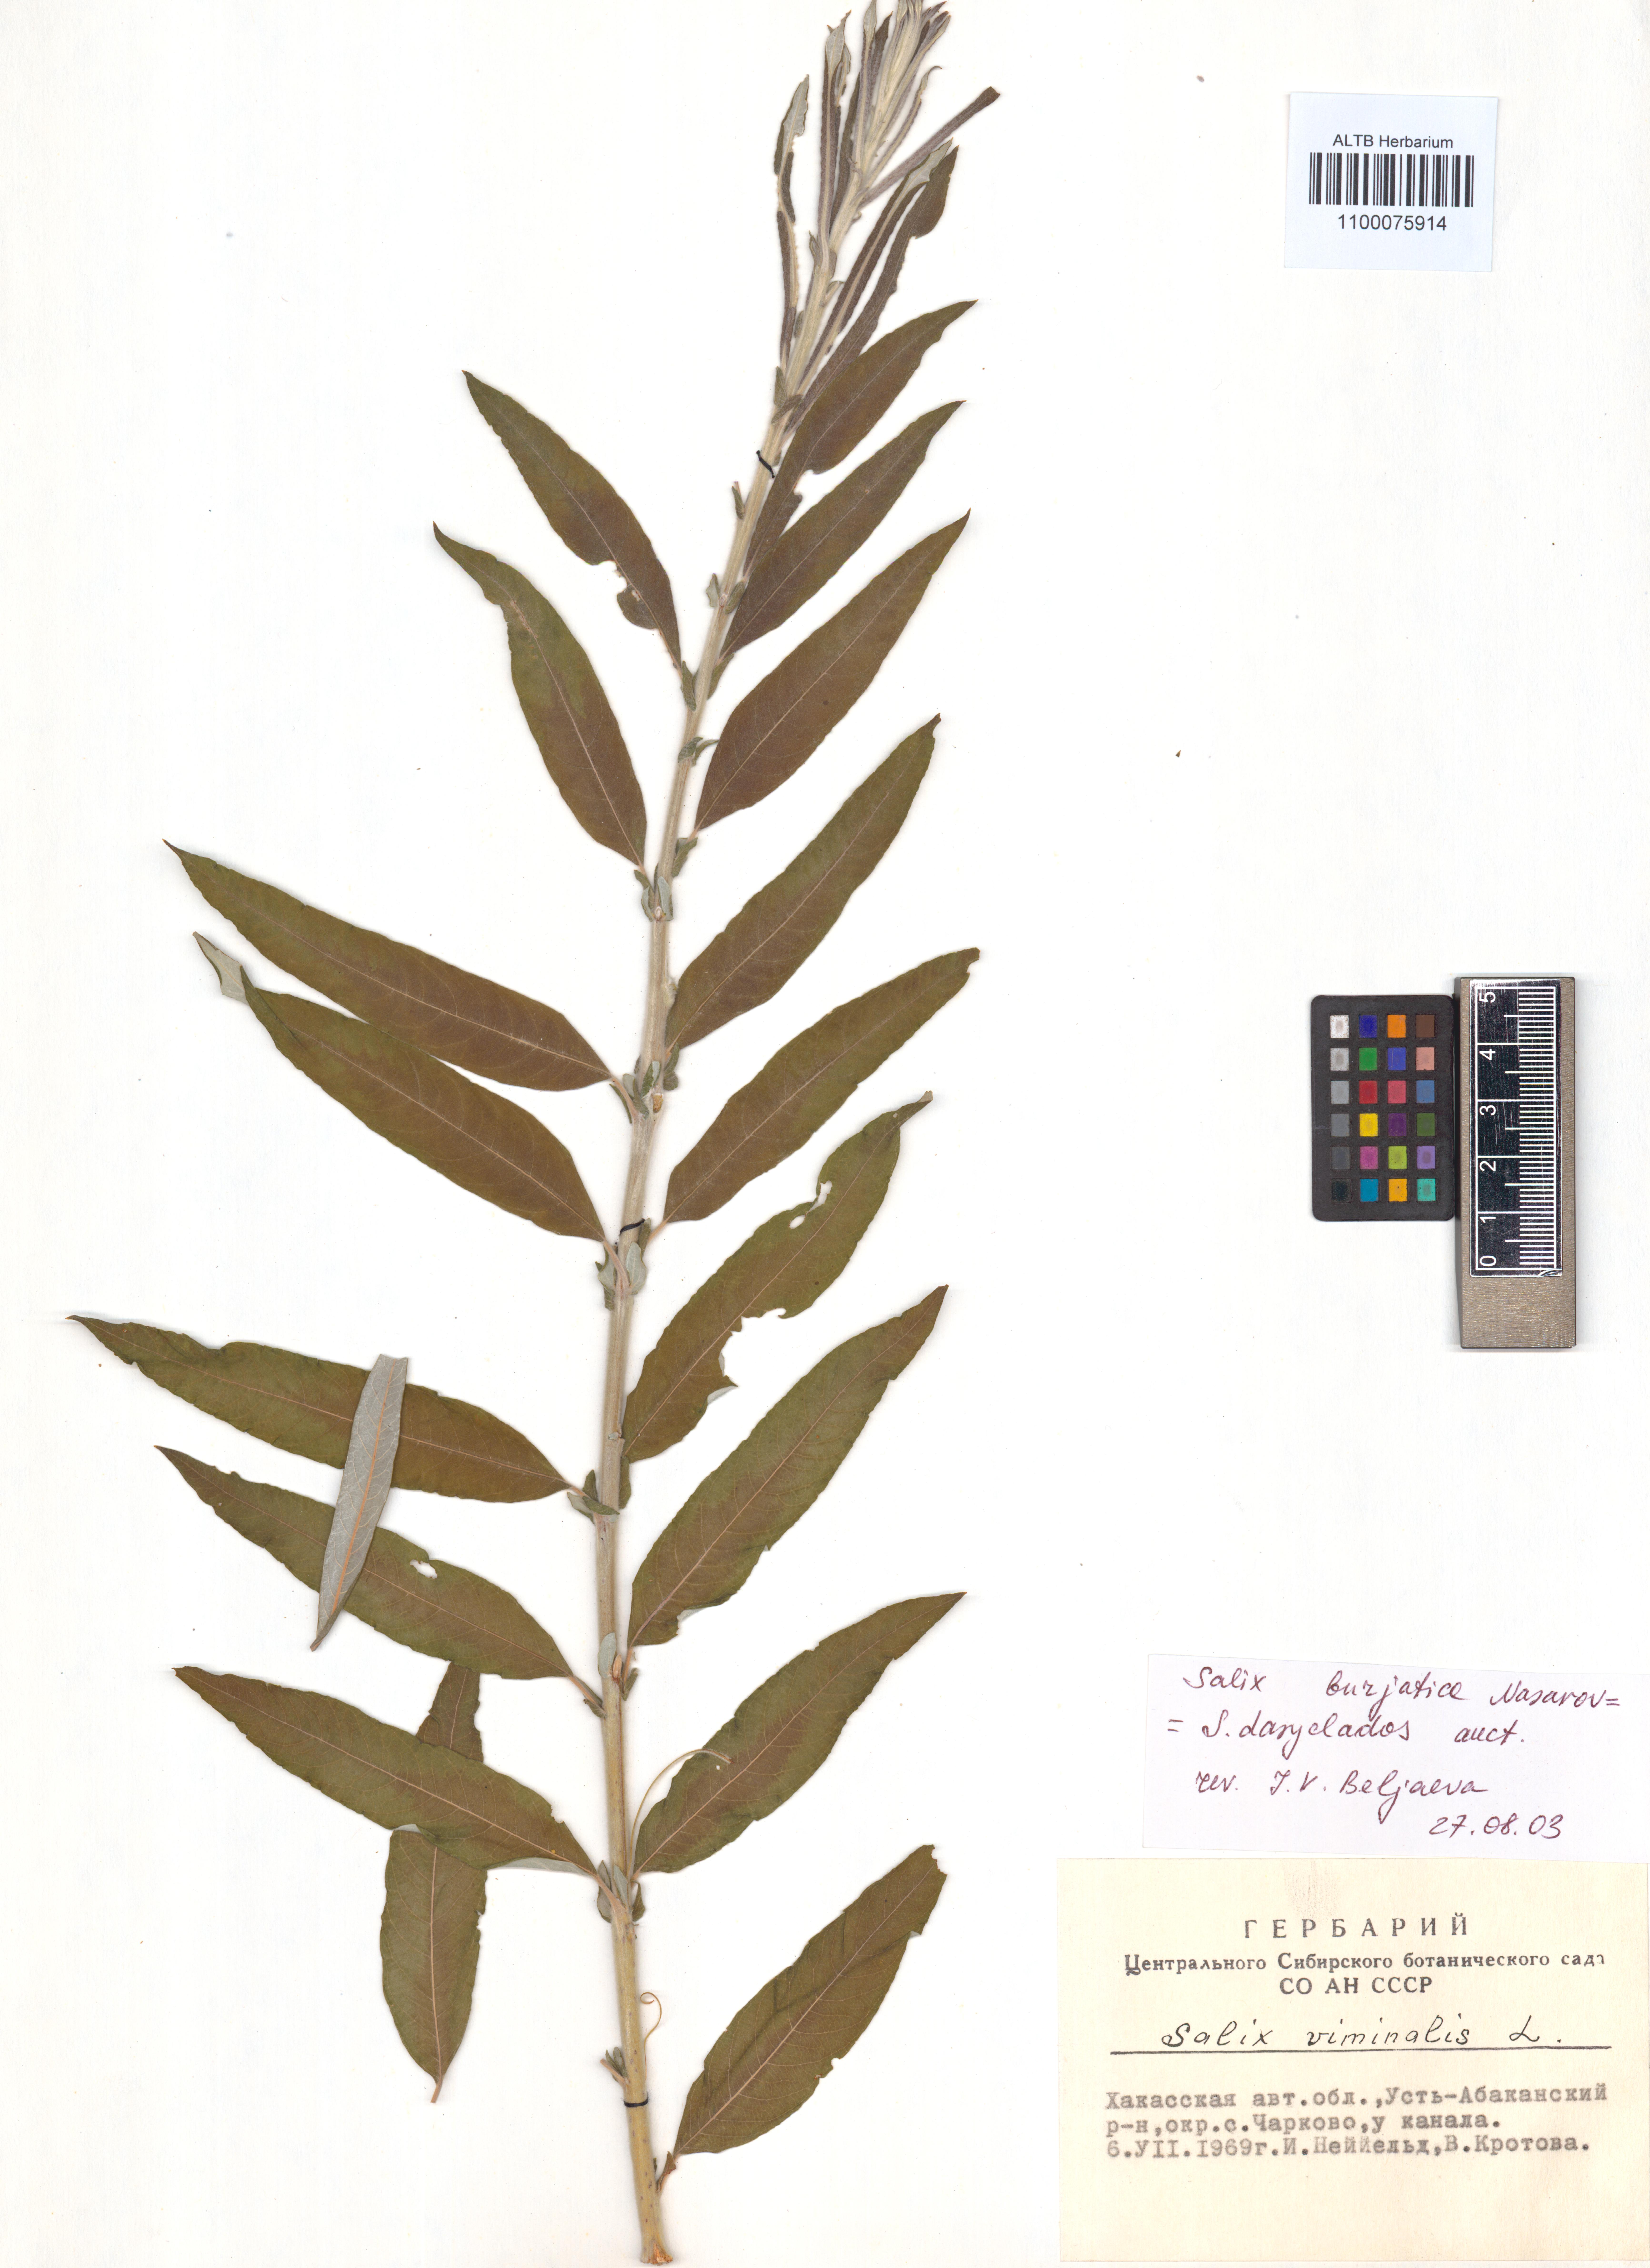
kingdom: Plantae
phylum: Tracheophyta
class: Magnoliopsida
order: Malpighiales
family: Salicaceae
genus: Salix
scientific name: Salix gmelinii
